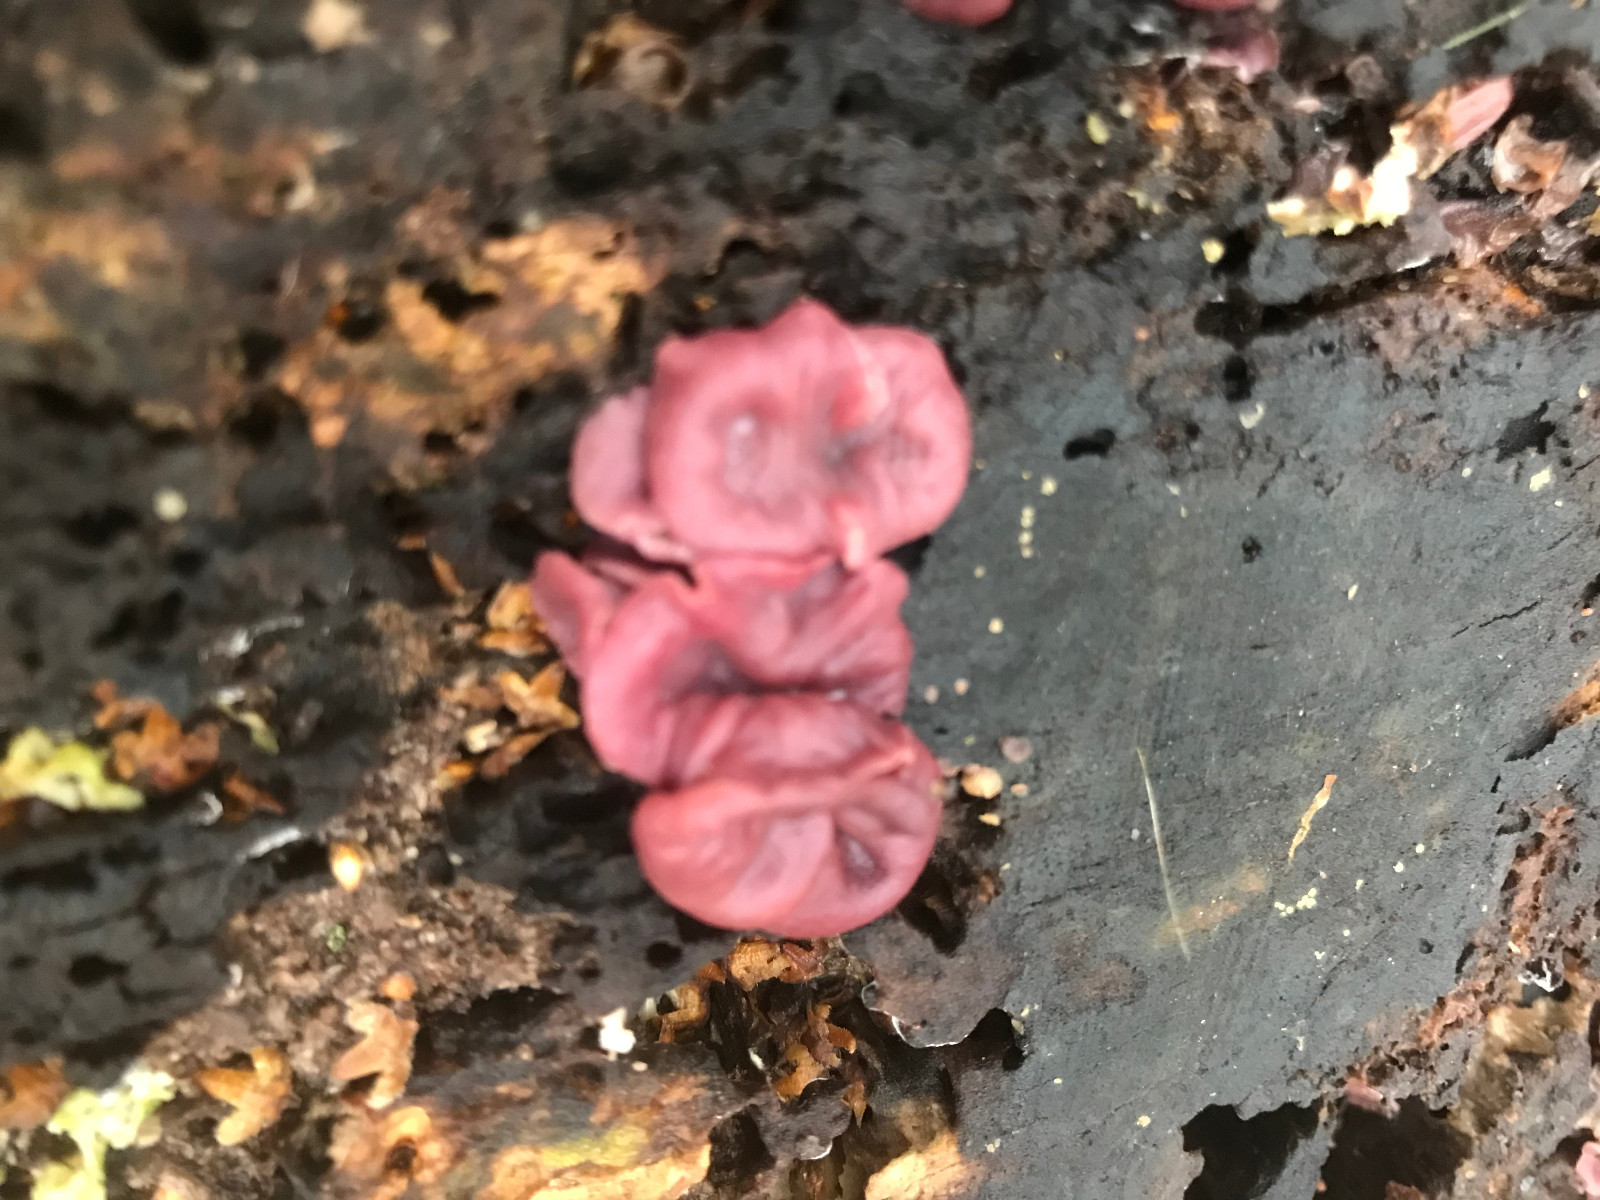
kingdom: Fungi
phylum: Ascomycota
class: Leotiomycetes
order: Helotiales
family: Gelatinodiscaceae
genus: Ascocoryne
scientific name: Ascocoryne cylichnium
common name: stor sejskive
